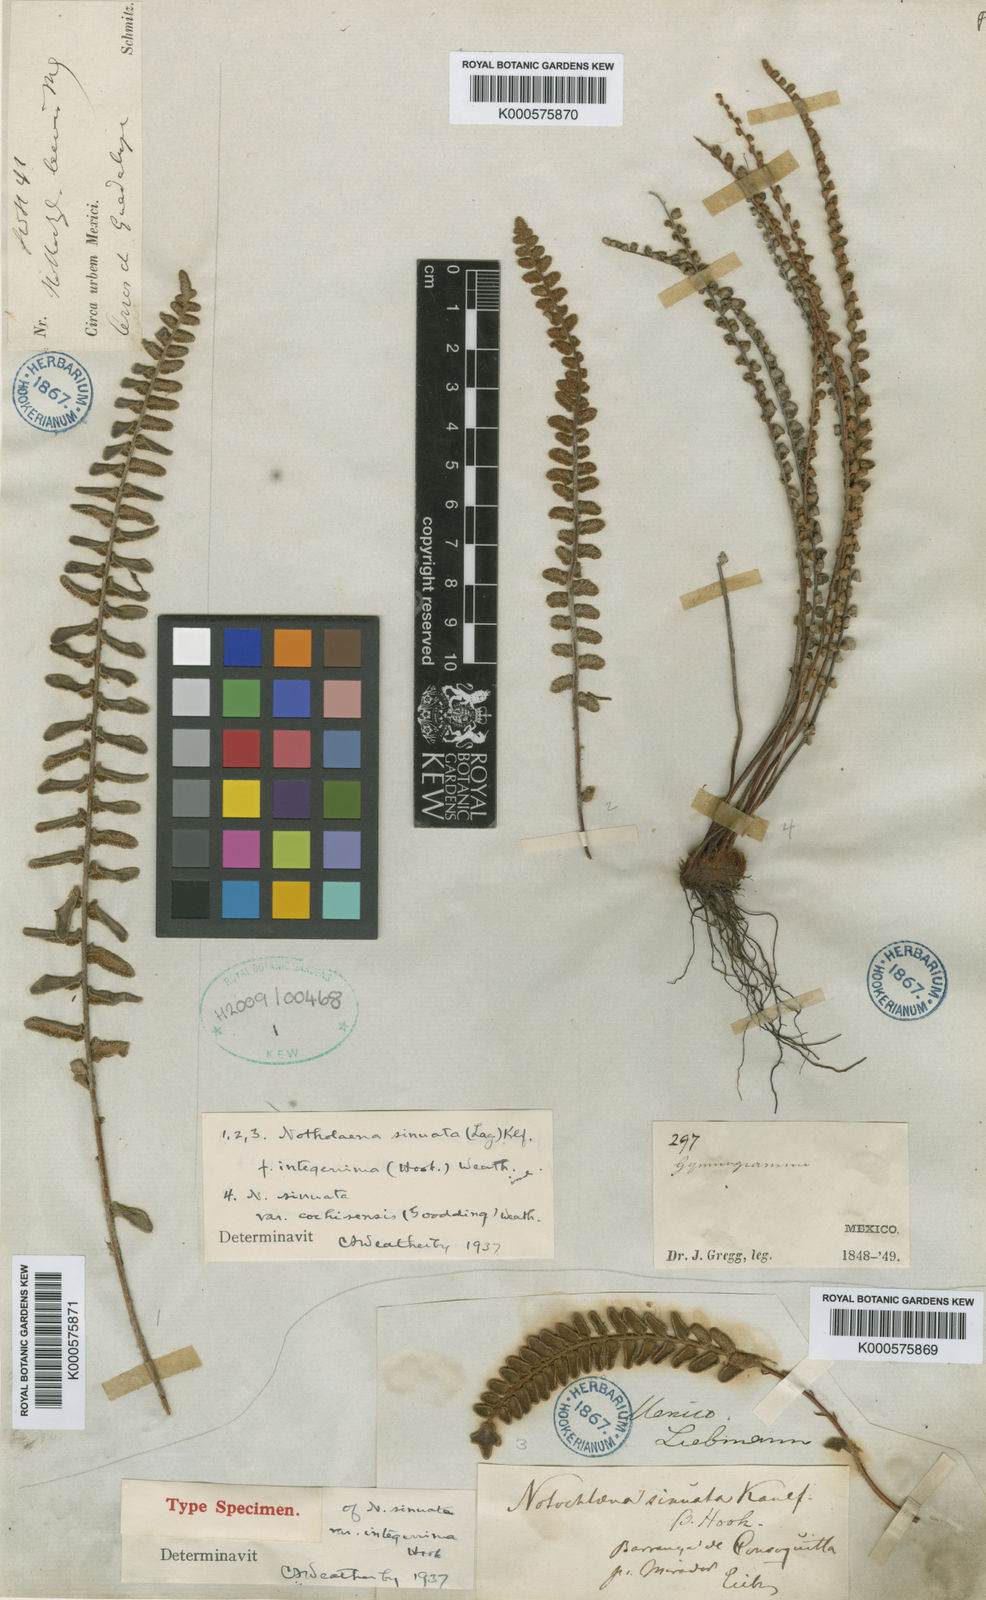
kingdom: Plantae
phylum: Tracheophyta
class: Polypodiopsida
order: Polypodiales
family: Pteridaceae
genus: Astrolepis
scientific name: Astrolepis sinuata
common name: Wavy scaly cloakfern
